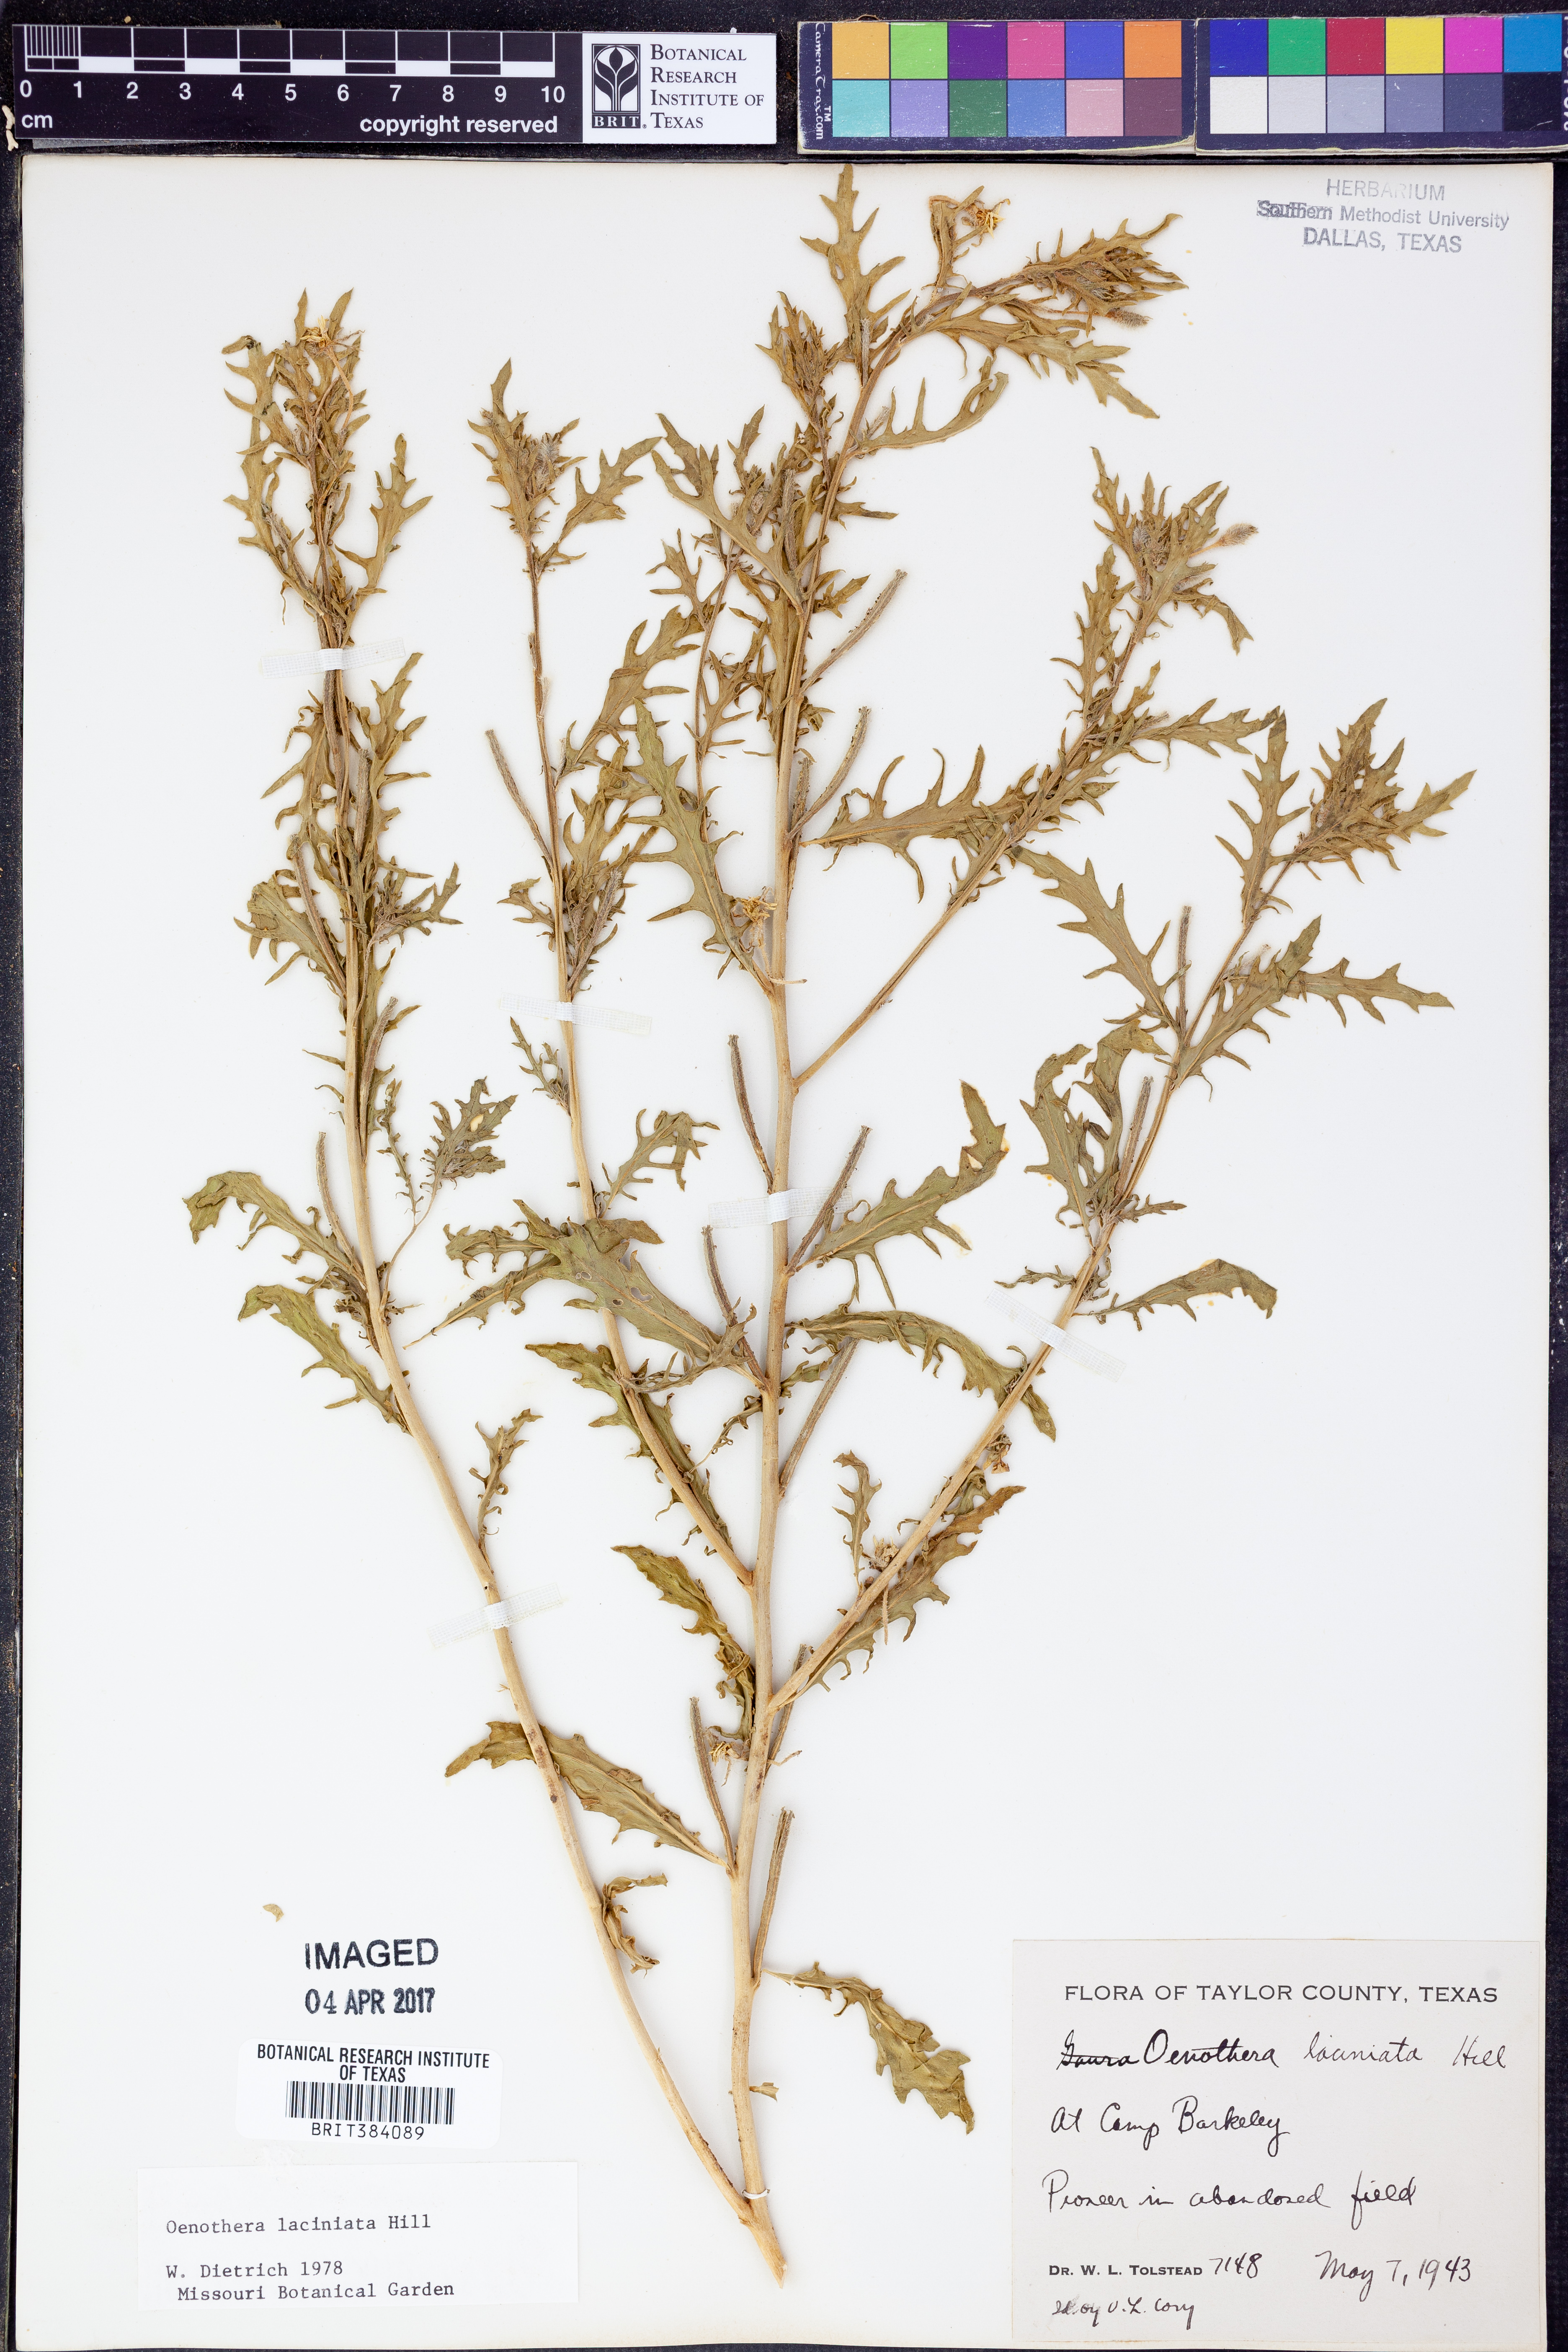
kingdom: Plantae
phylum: Tracheophyta
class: Magnoliopsida
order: Myrtales
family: Onagraceae
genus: Oenothera
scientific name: Oenothera laciniata
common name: Cut-leaved evening-primrose
